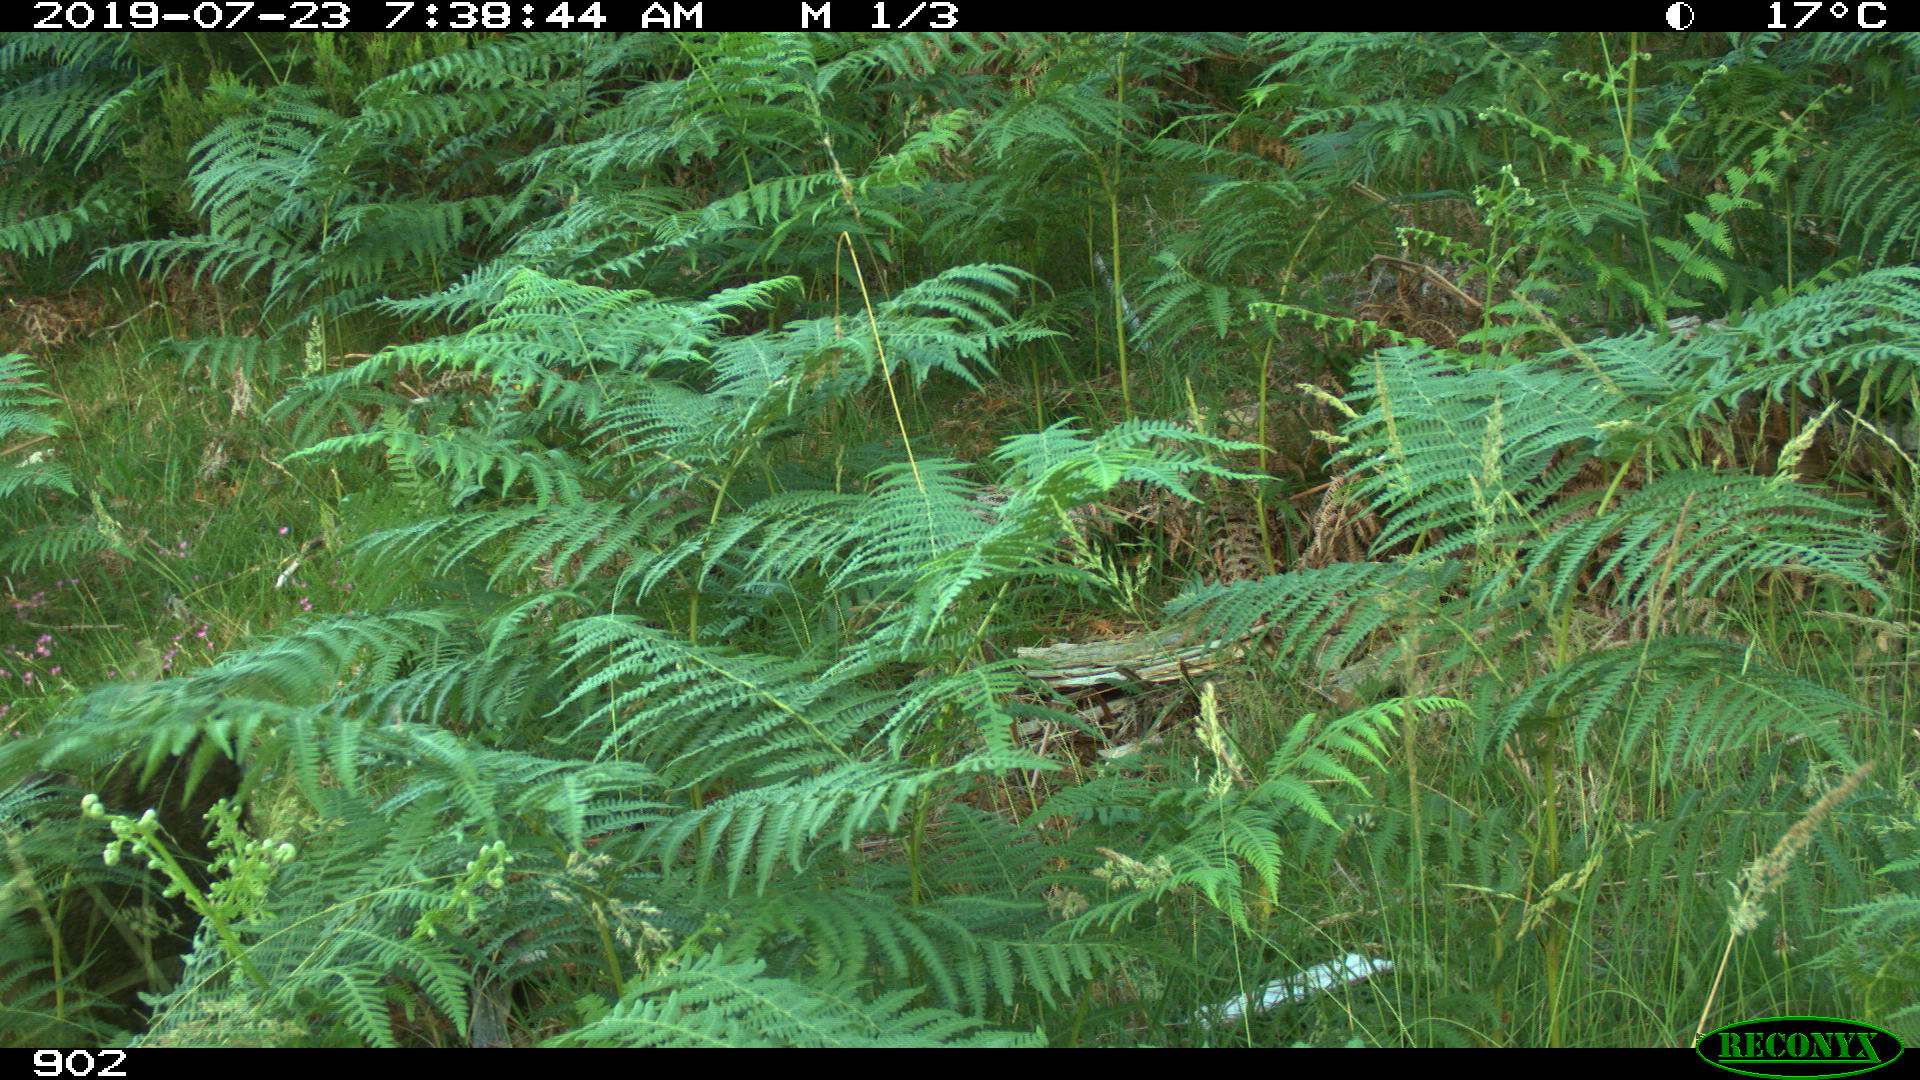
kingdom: Animalia
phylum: Chordata
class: Mammalia
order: Artiodactyla
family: Suidae
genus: Sus
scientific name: Sus scrofa
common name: Wild boar
